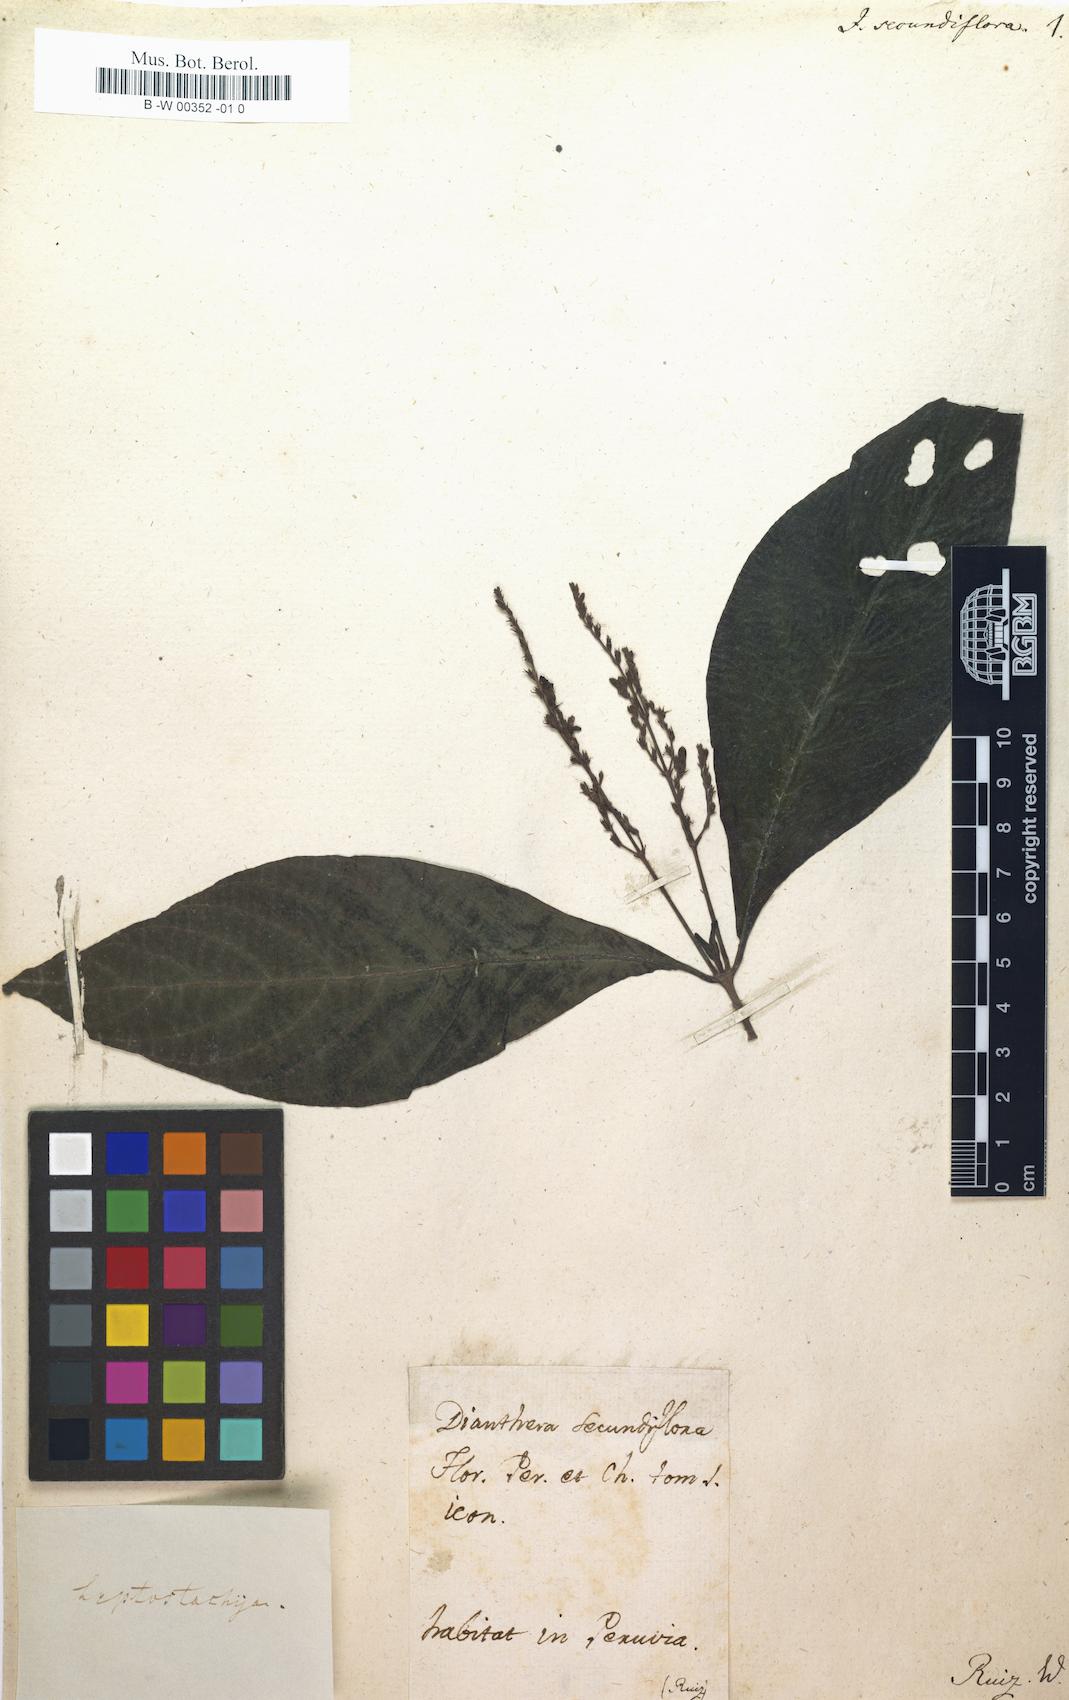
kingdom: Plantae
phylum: Tracheophyta
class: Magnoliopsida
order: Lamiales
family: Acanthaceae
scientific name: Acanthaceae
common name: Acanthaceae
